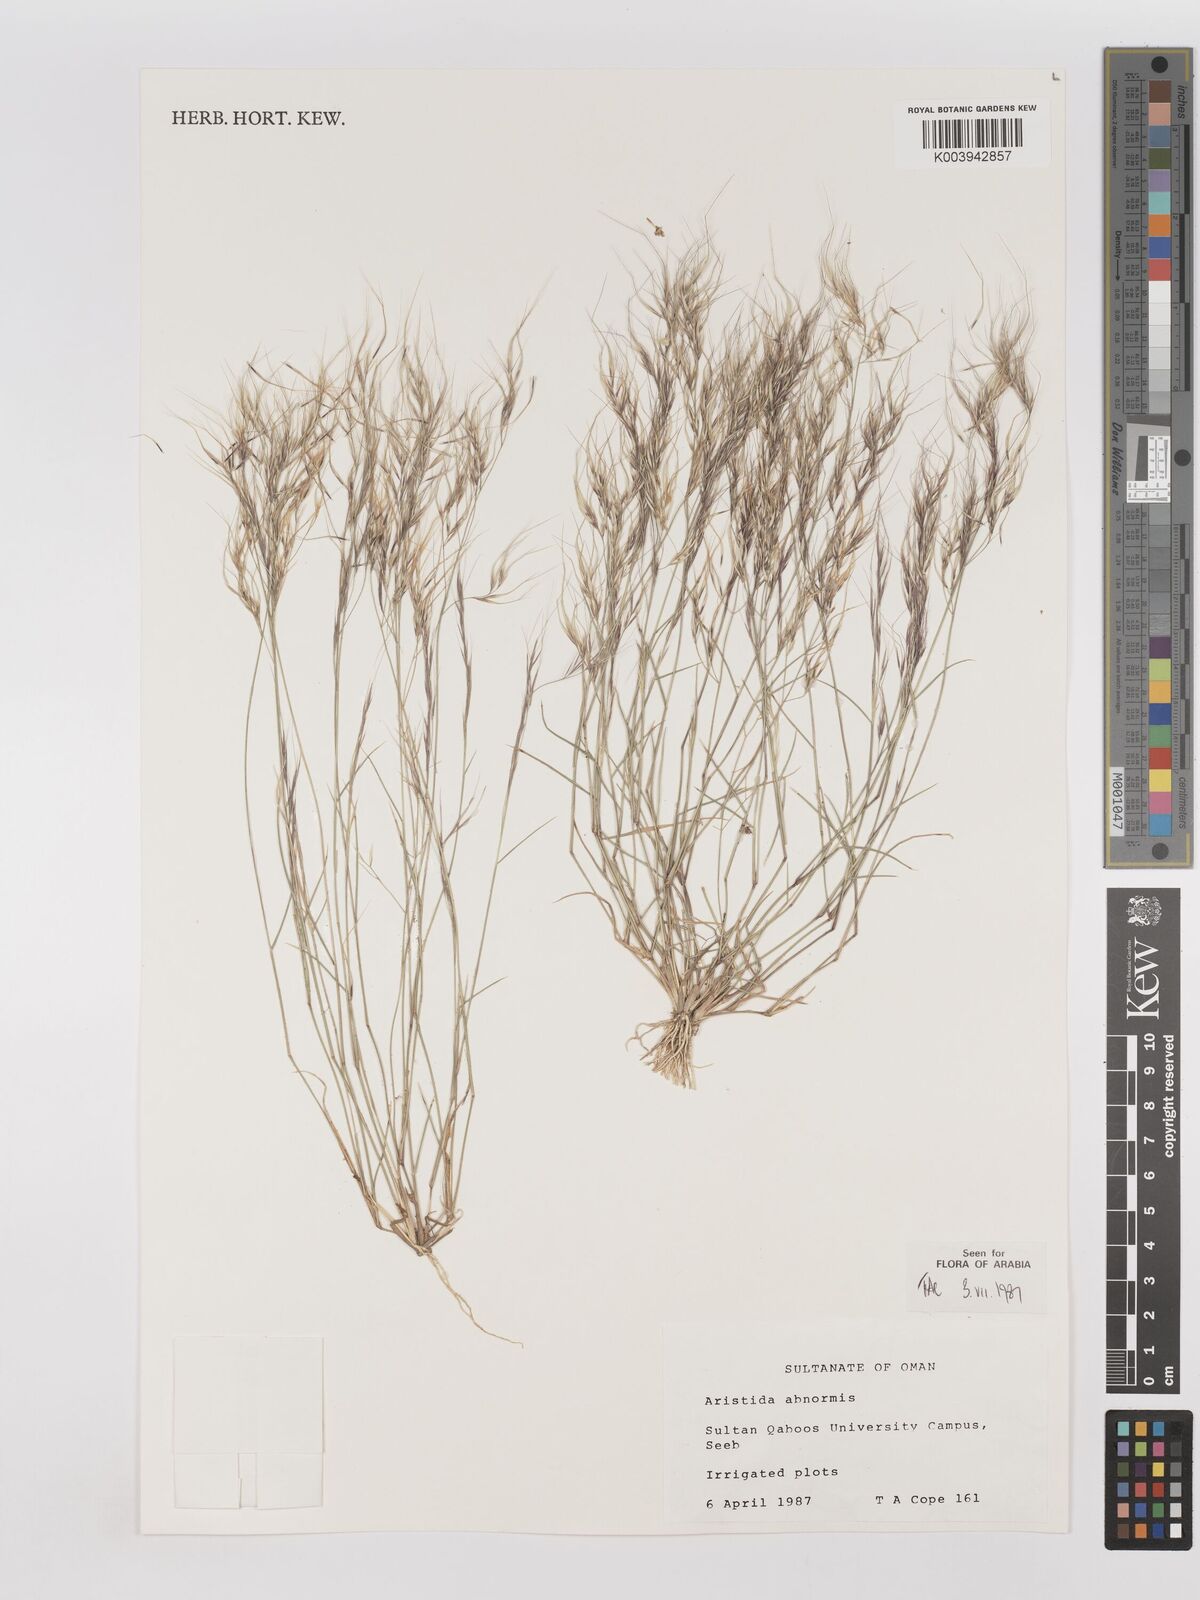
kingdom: Plantae
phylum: Tracheophyta
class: Liliopsida
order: Poales
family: Poaceae
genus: Aristida
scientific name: Aristida abnormis
